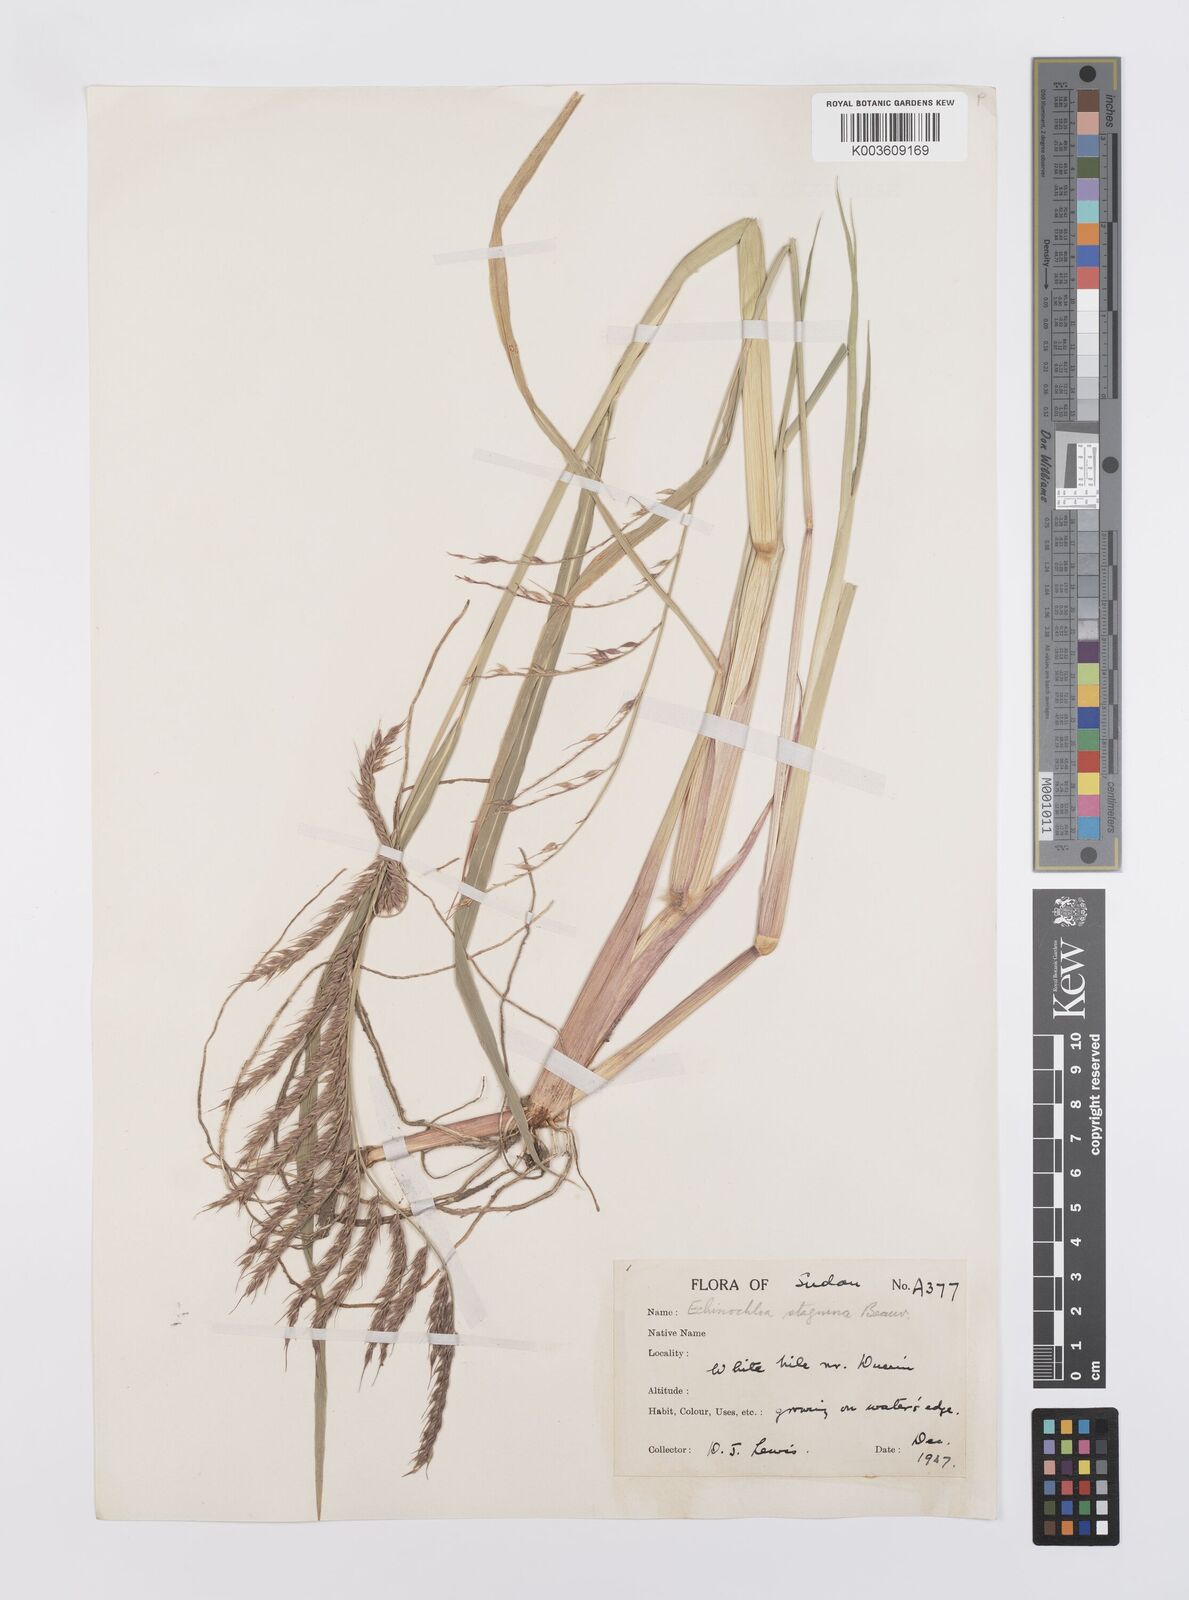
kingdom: Plantae
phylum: Tracheophyta
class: Liliopsida
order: Poales
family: Poaceae
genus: Echinochloa
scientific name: Echinochloa stagnina
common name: Burgu grass
